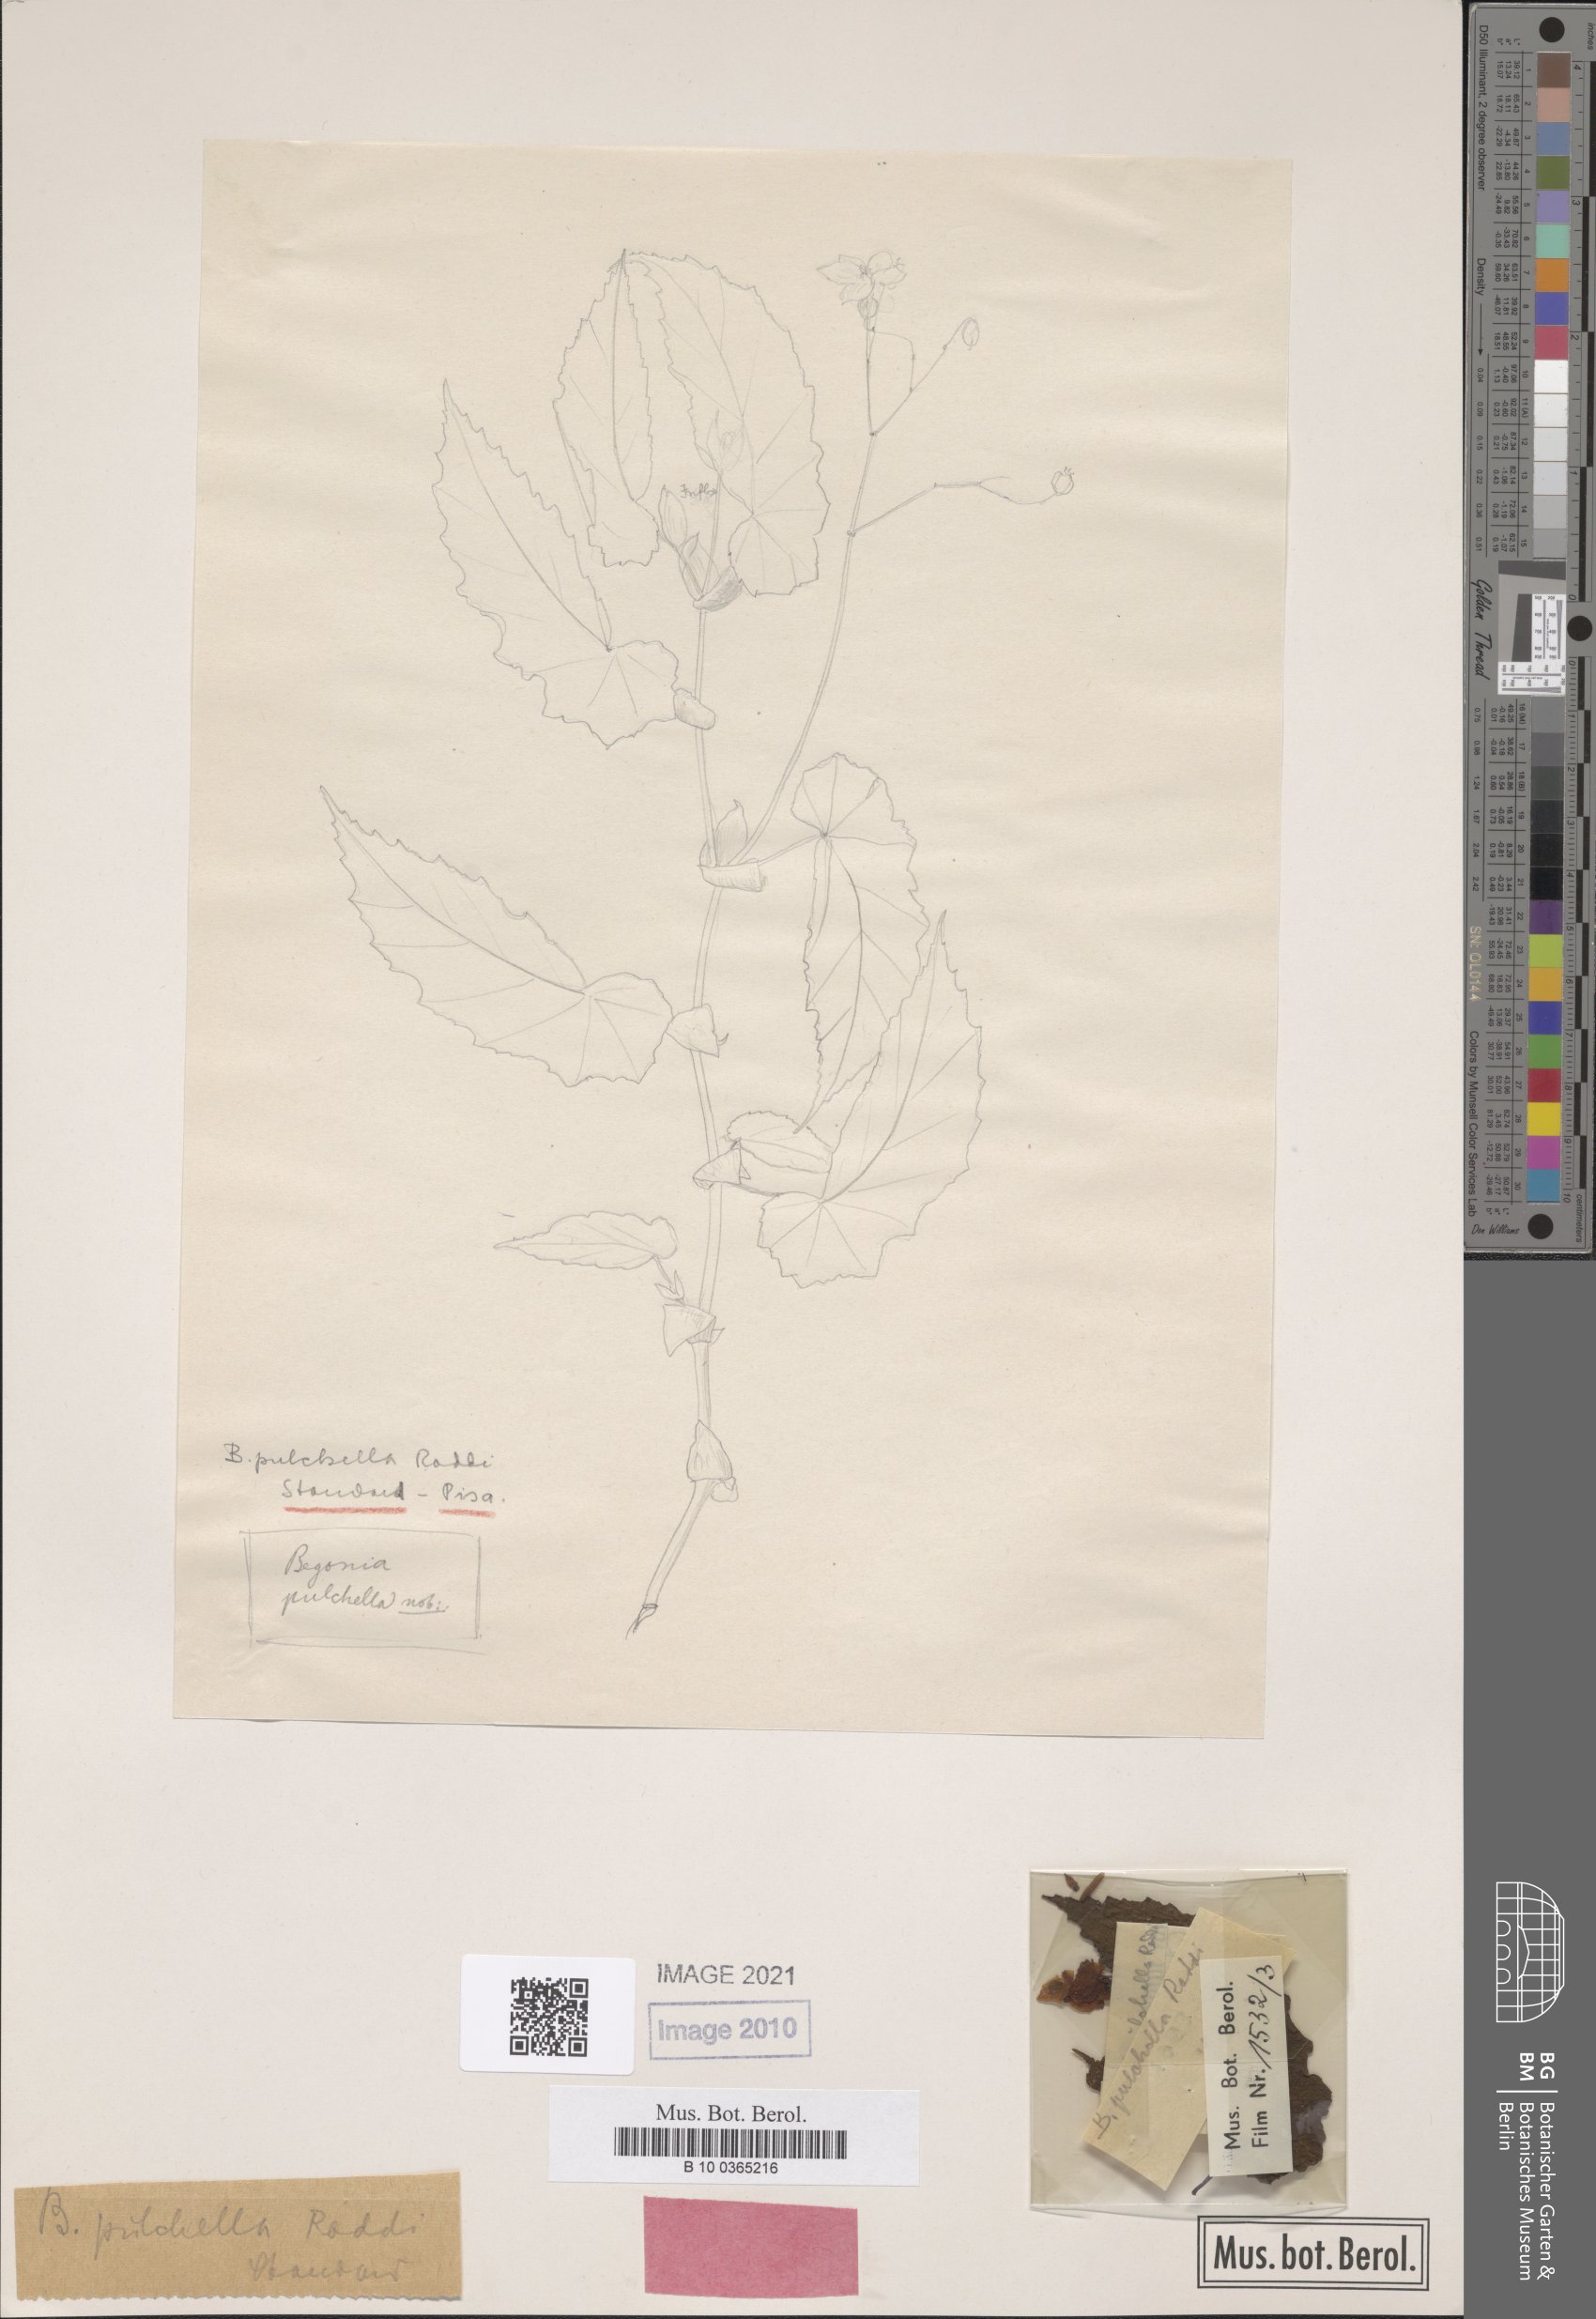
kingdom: Plantae
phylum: Tracheophyta
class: Magnoliopsida
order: Cucurbitales
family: Begoniaceae
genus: Begonia
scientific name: Begonia pulchella
